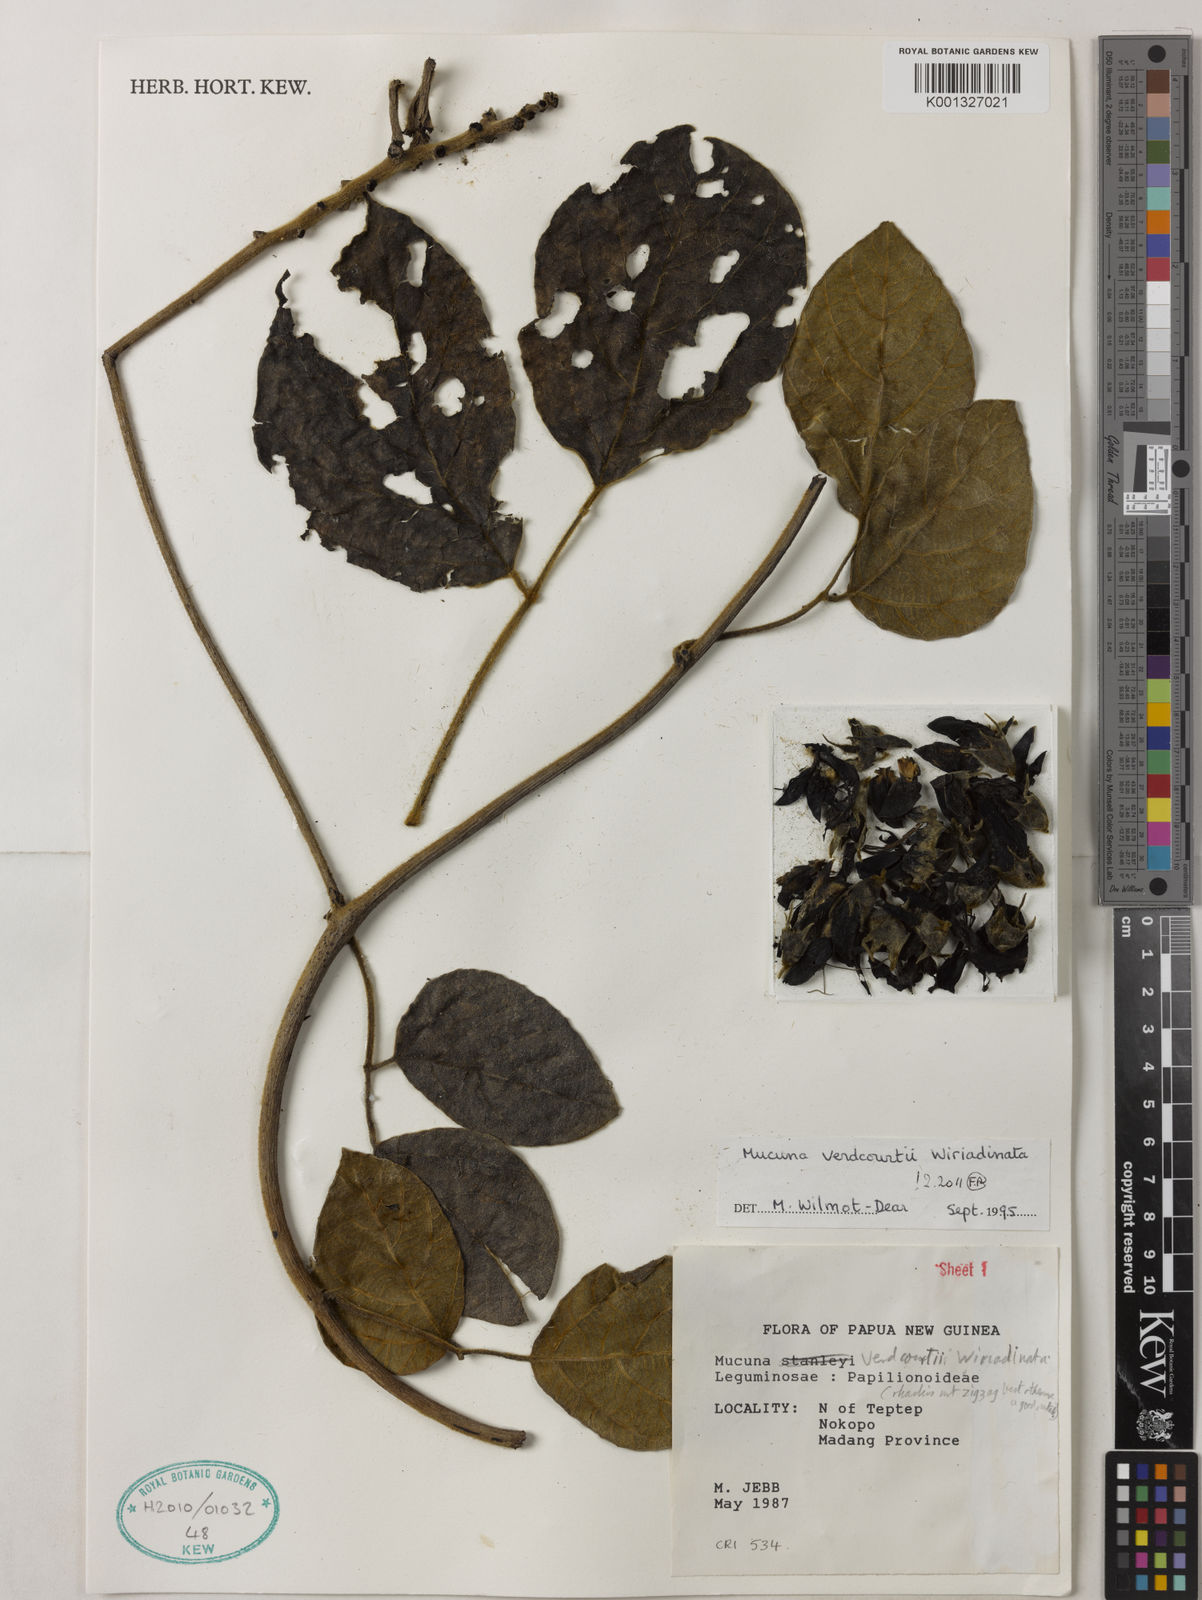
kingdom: Plantae
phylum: Tracheophyta
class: Magnoliopsida
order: Fabales
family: Fabaceae
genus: Mucuna
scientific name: Mucuna verdcourtii
